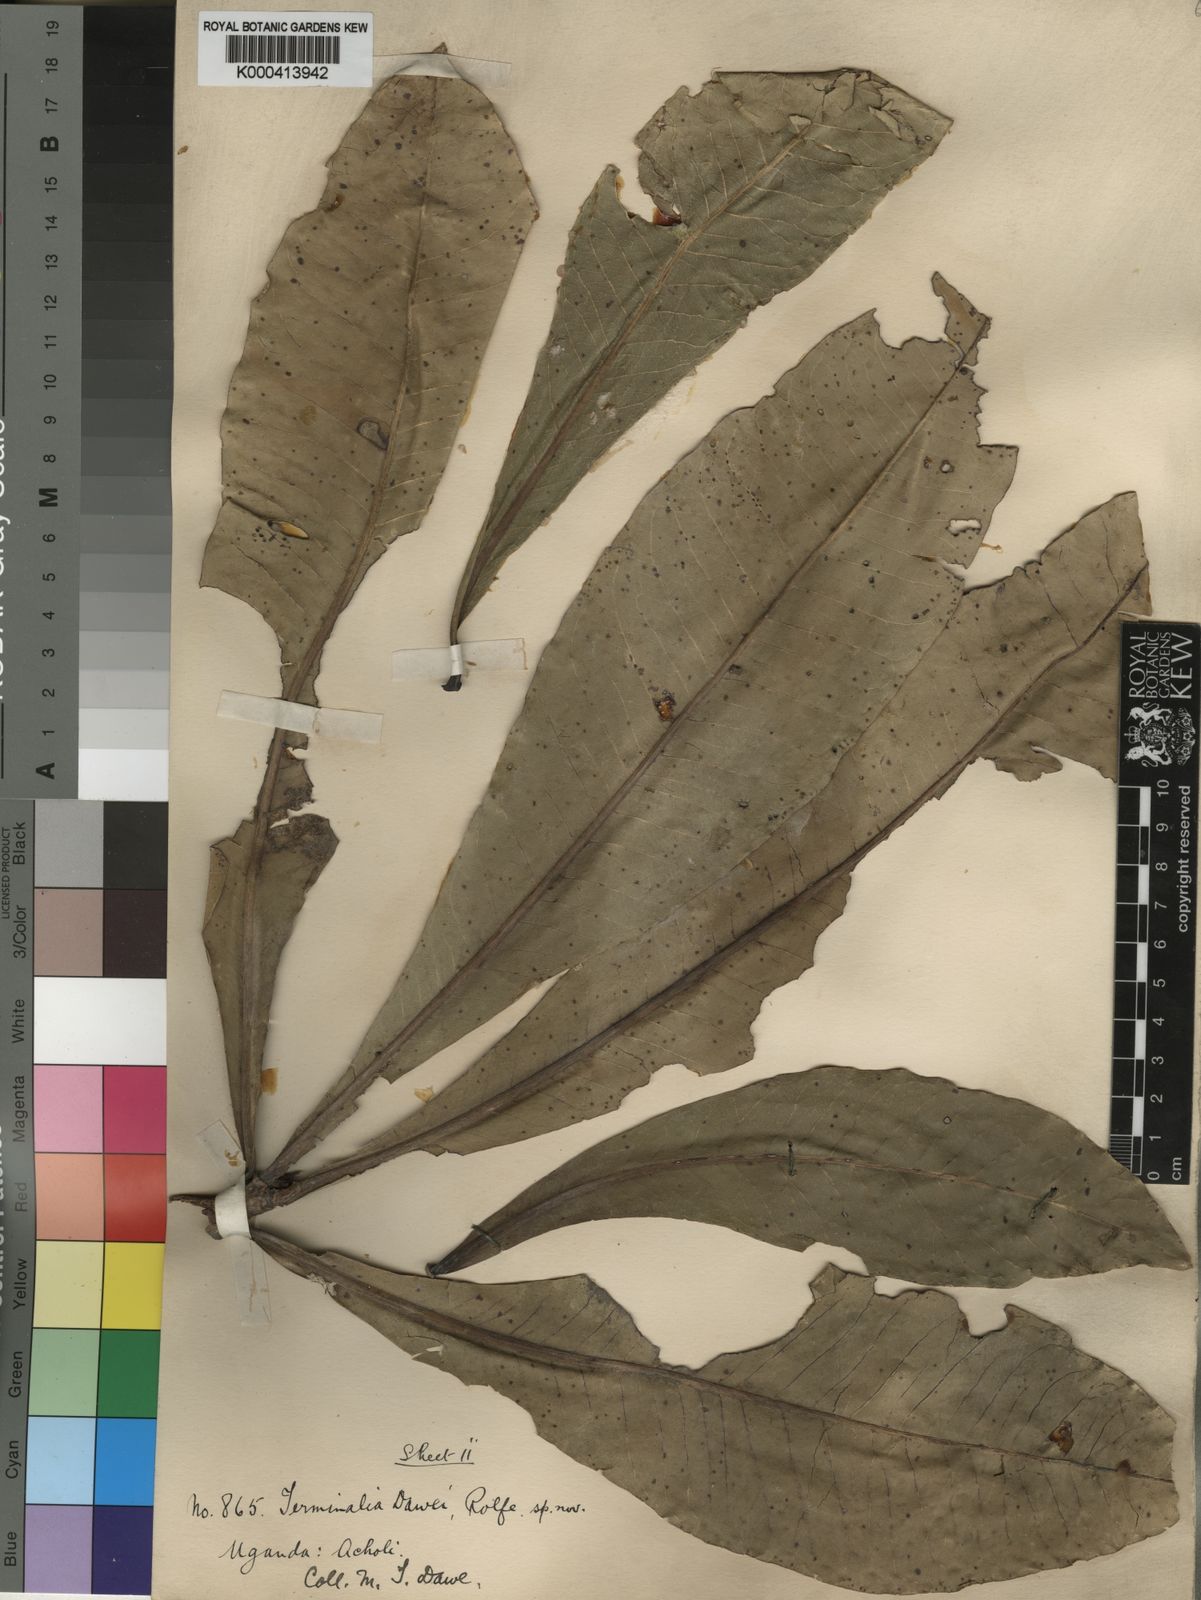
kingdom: Plantae
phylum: Tracheophyta
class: Magnoliopsida
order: Myrtales
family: Combretaceae
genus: Terminalia
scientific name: Terminalia macroptera
